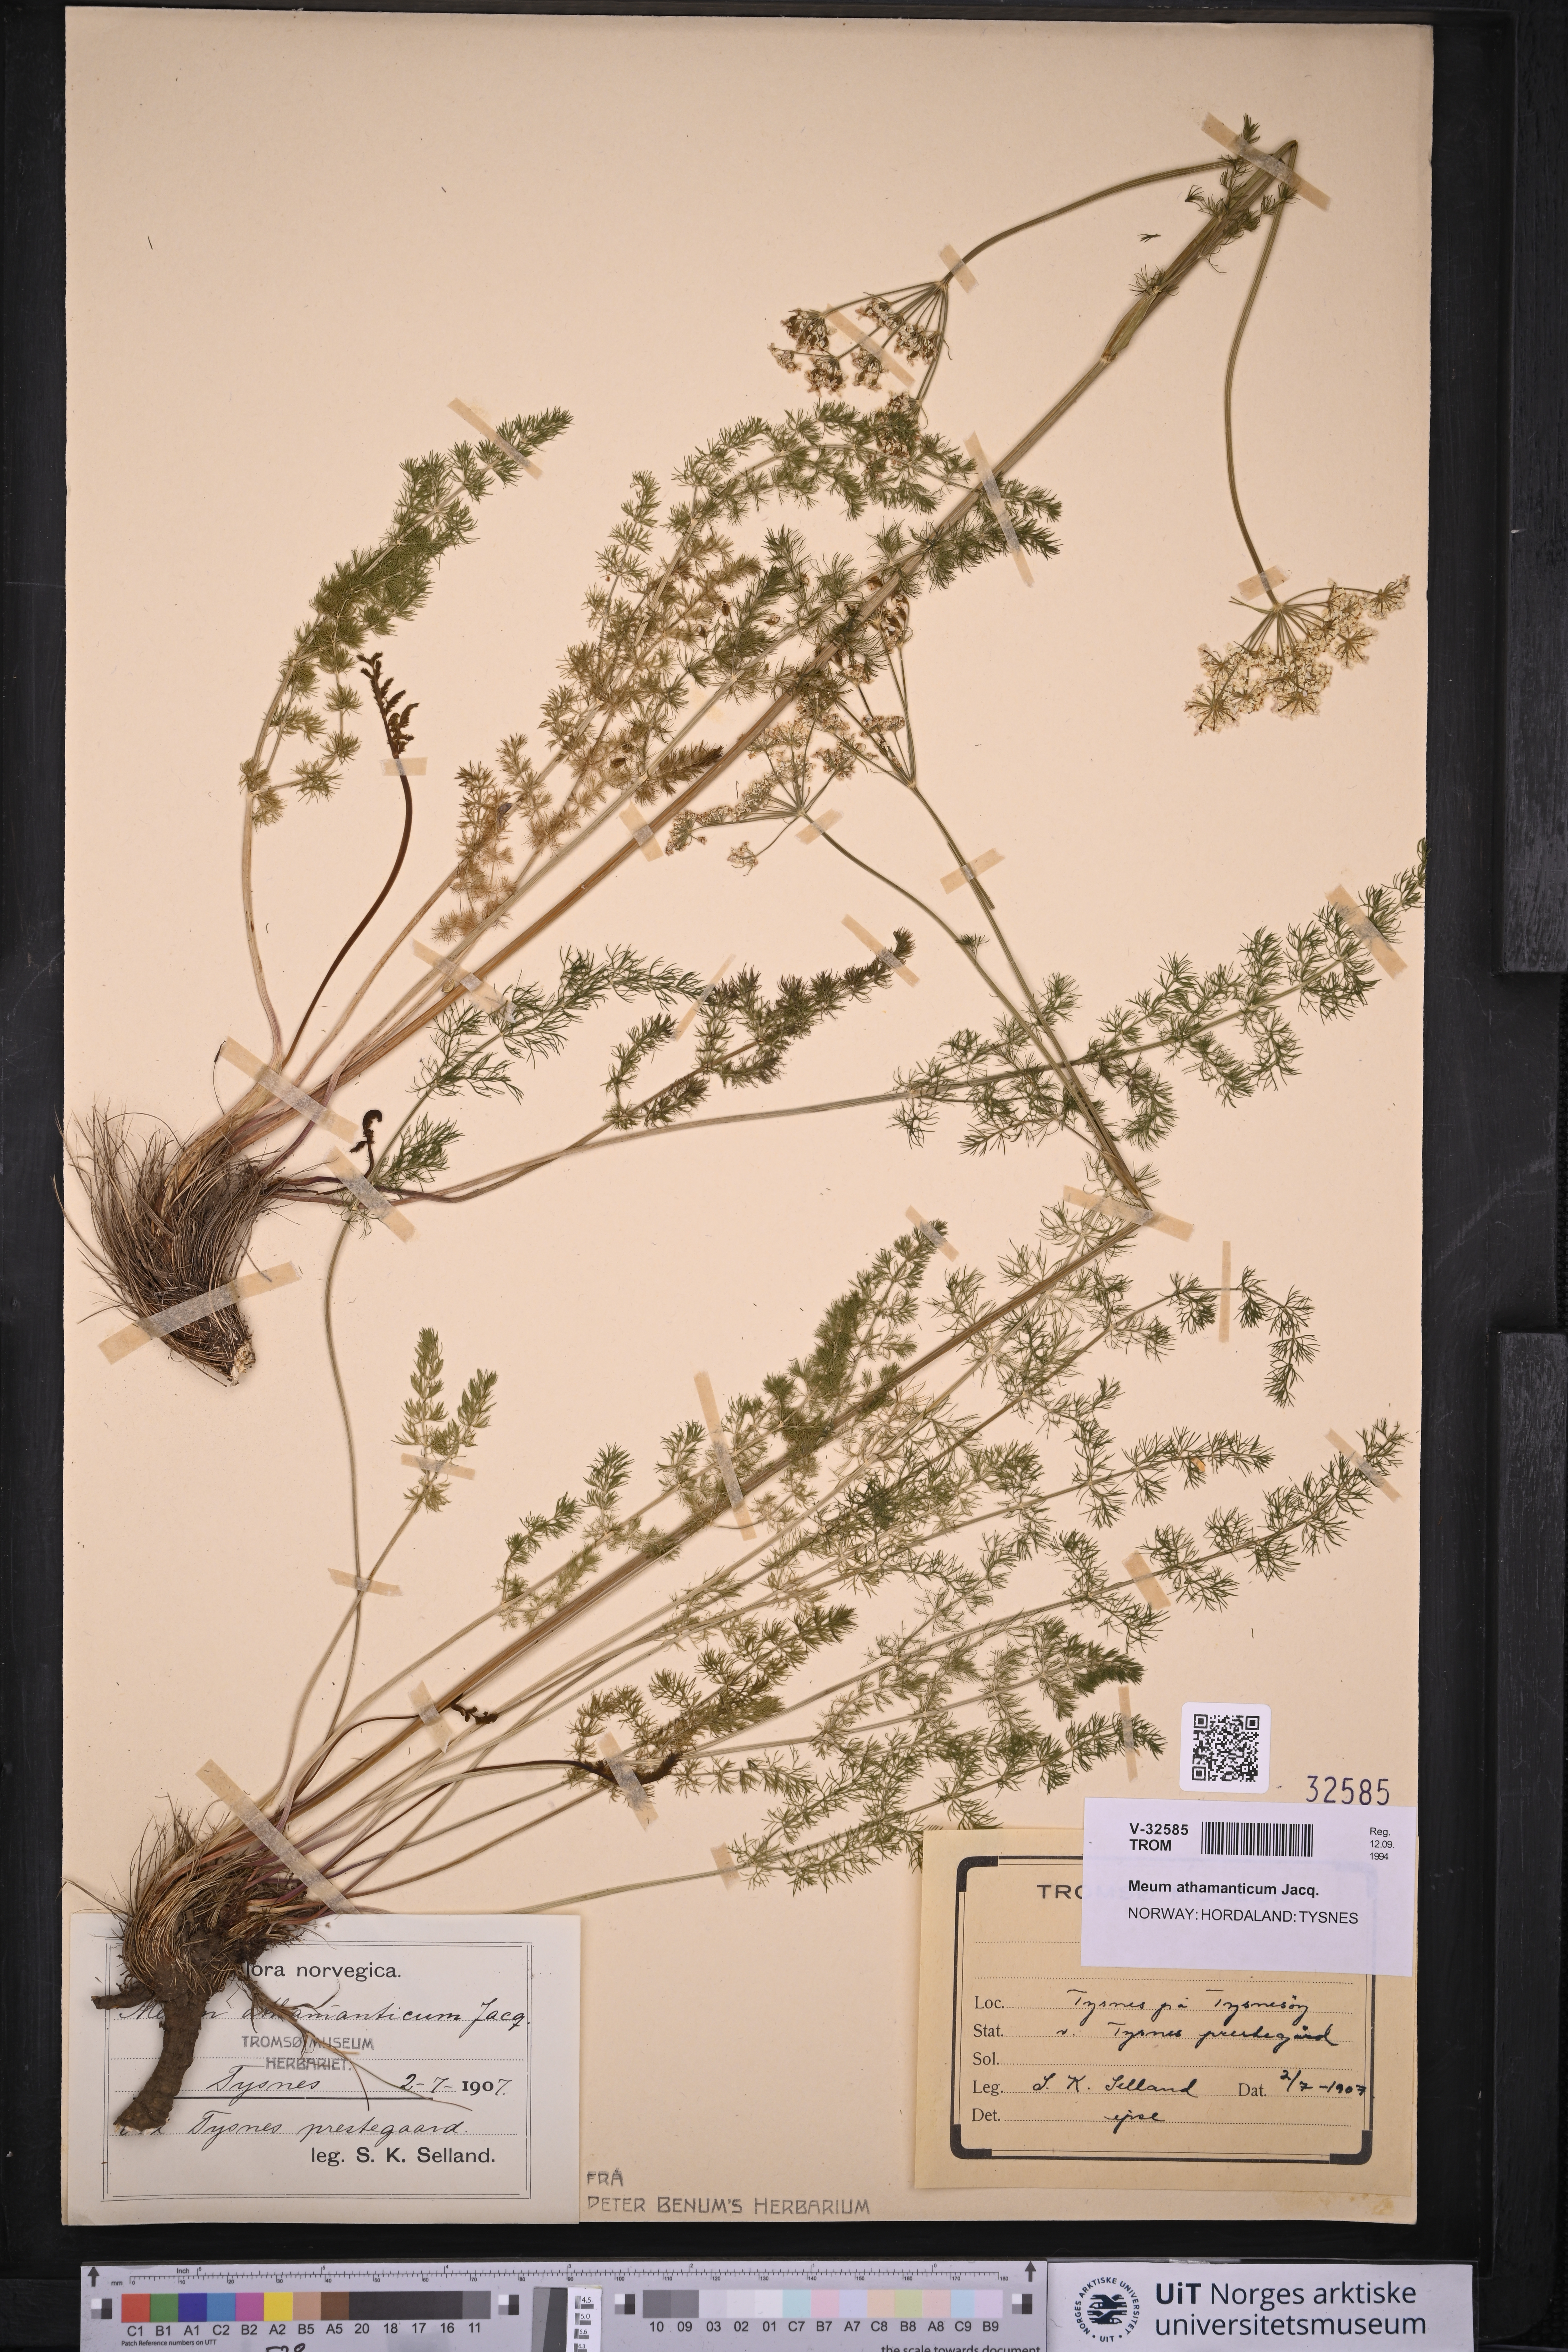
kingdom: Plantae
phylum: Tracheophyta
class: Magnoliopsida
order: Apiales
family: Apiaceae
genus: Meum
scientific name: Meum athamanticum
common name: Spignel
